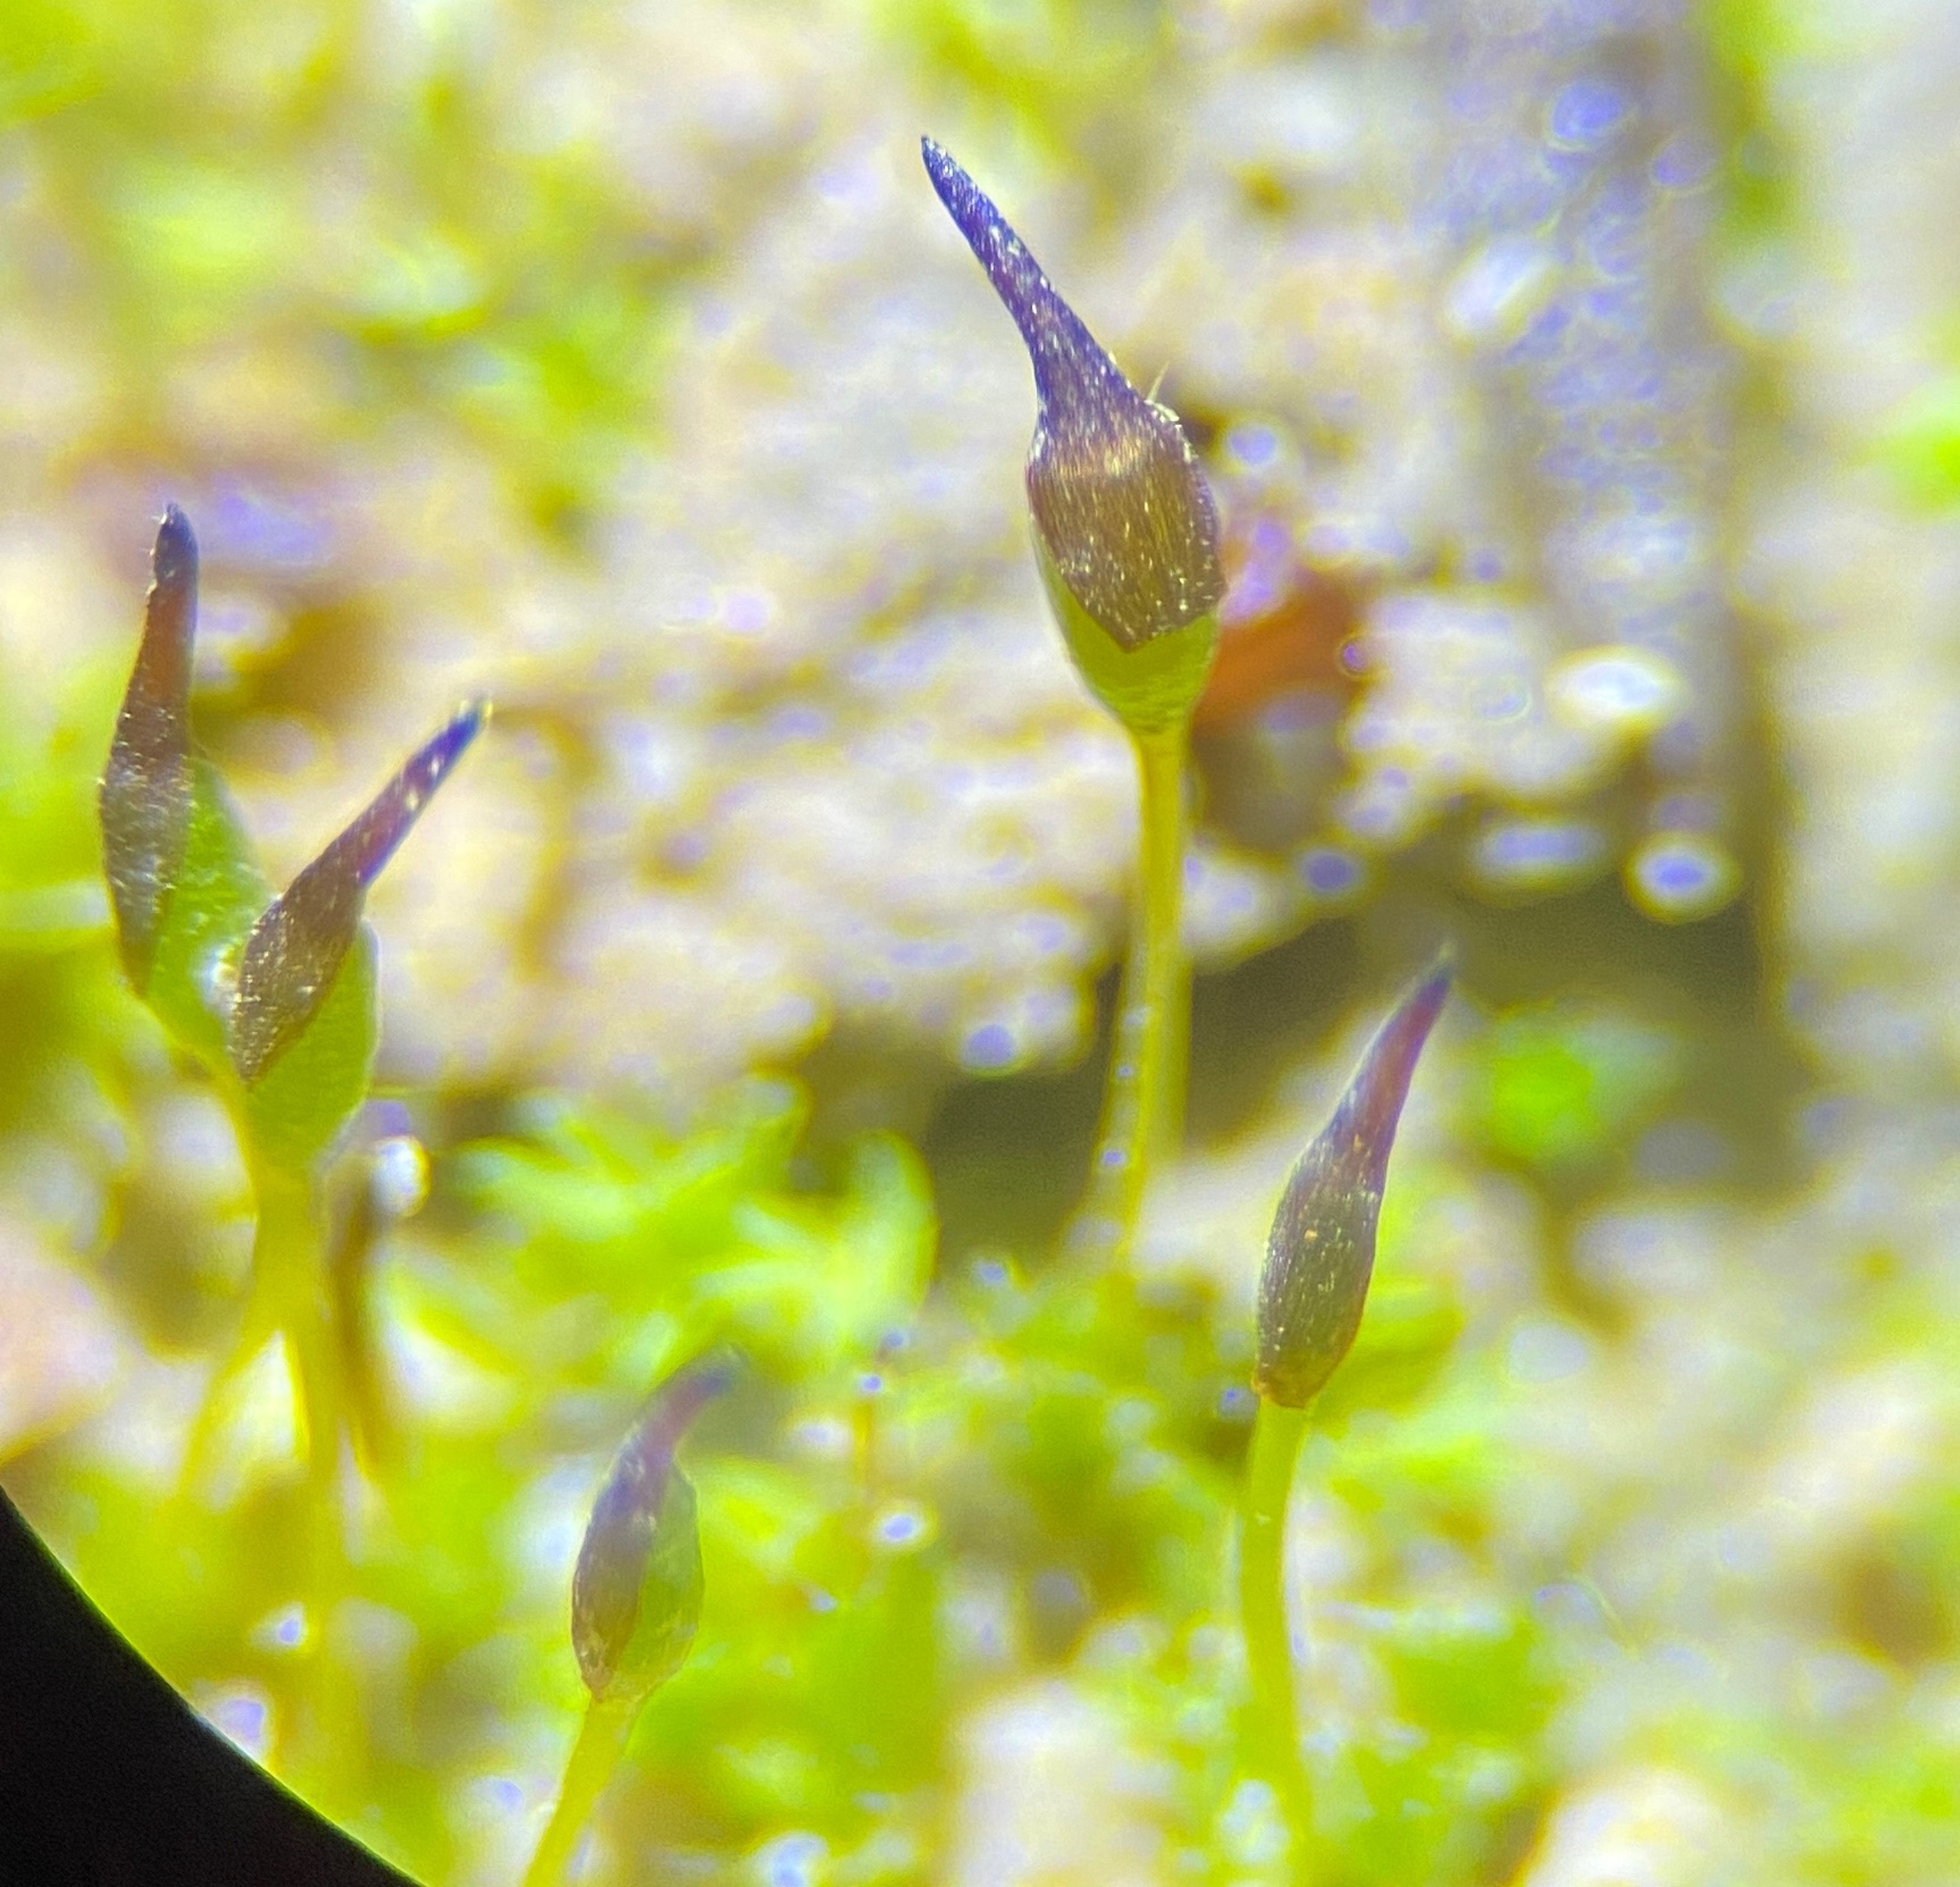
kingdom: Plantae
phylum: Bryophyta
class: Bryopsida
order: Pottiales
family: Pottiaceae
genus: Pterygoneurum
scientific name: Pterygoneurum ovatum
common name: Langhåret vingenerve
